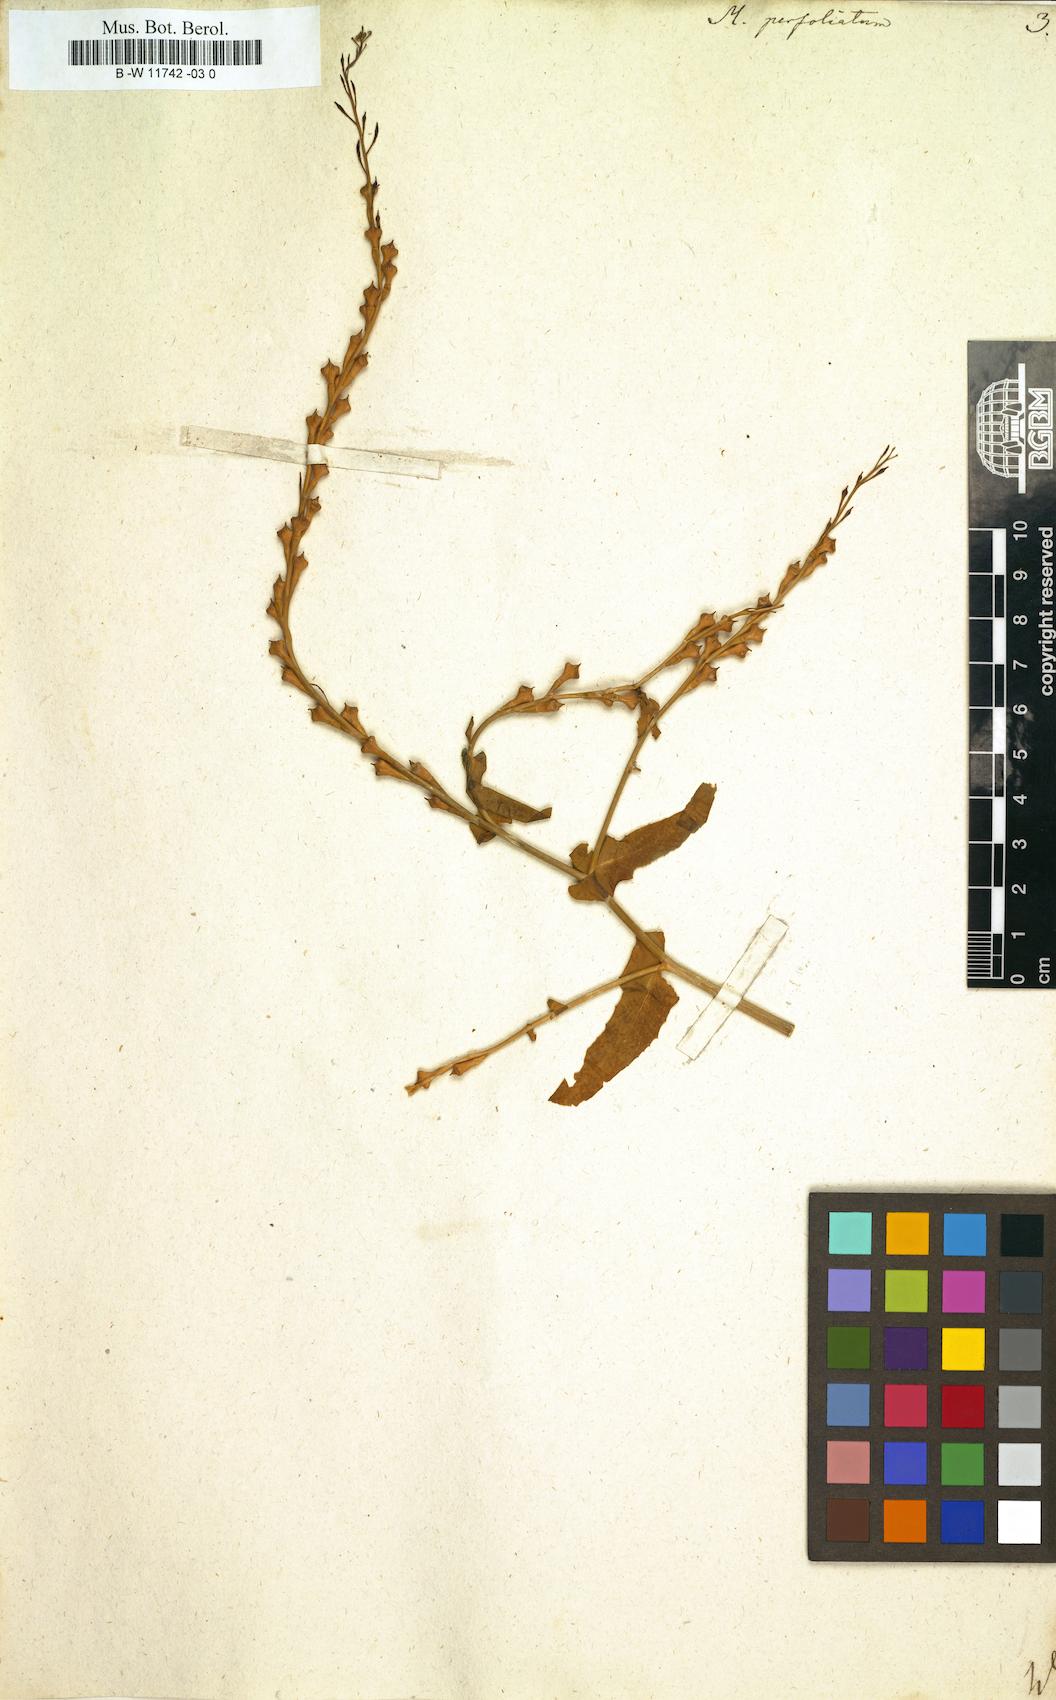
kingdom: Plantae
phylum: Tracheophyta
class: Magnoliopsida
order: Brassicales
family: Brassicaceae
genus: Myagrum
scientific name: Myagrum perfoliatum
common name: Mitre cress
